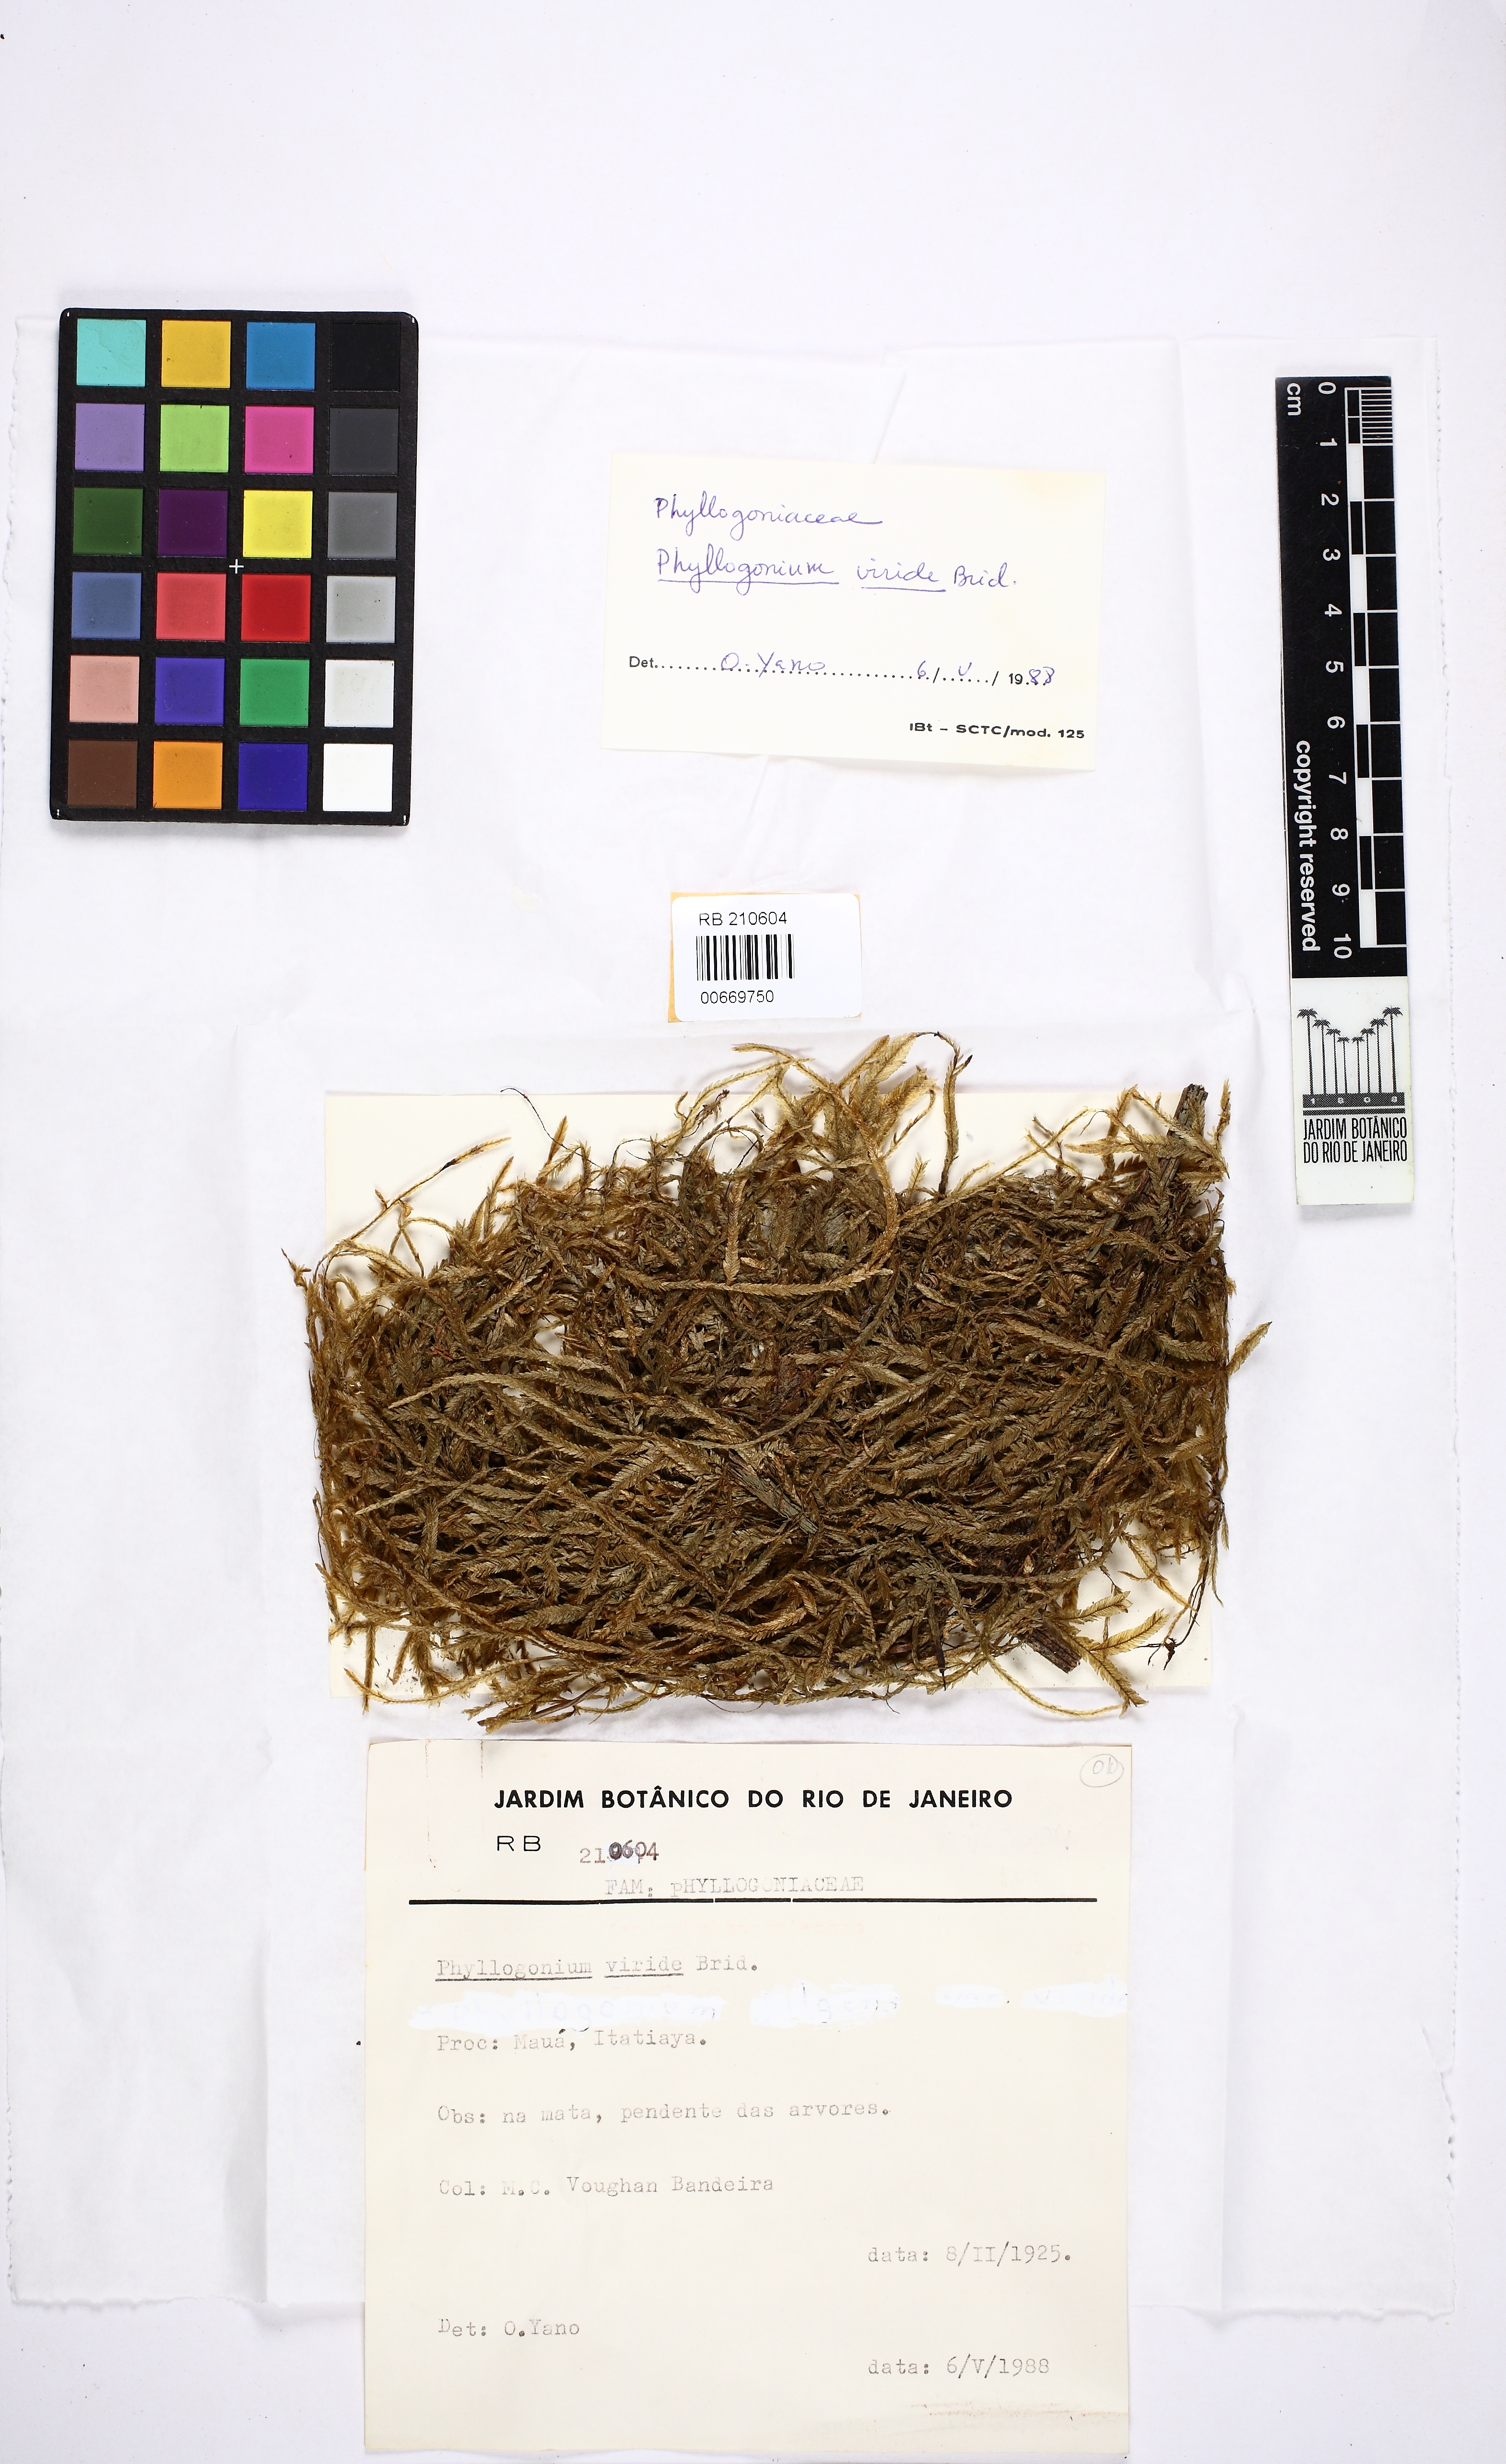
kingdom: Plantae
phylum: Bryophyta
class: Bryopsida
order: Hypnales
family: Phyllogoniaceae
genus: Phyllogonium
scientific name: Phyllogonium viride
